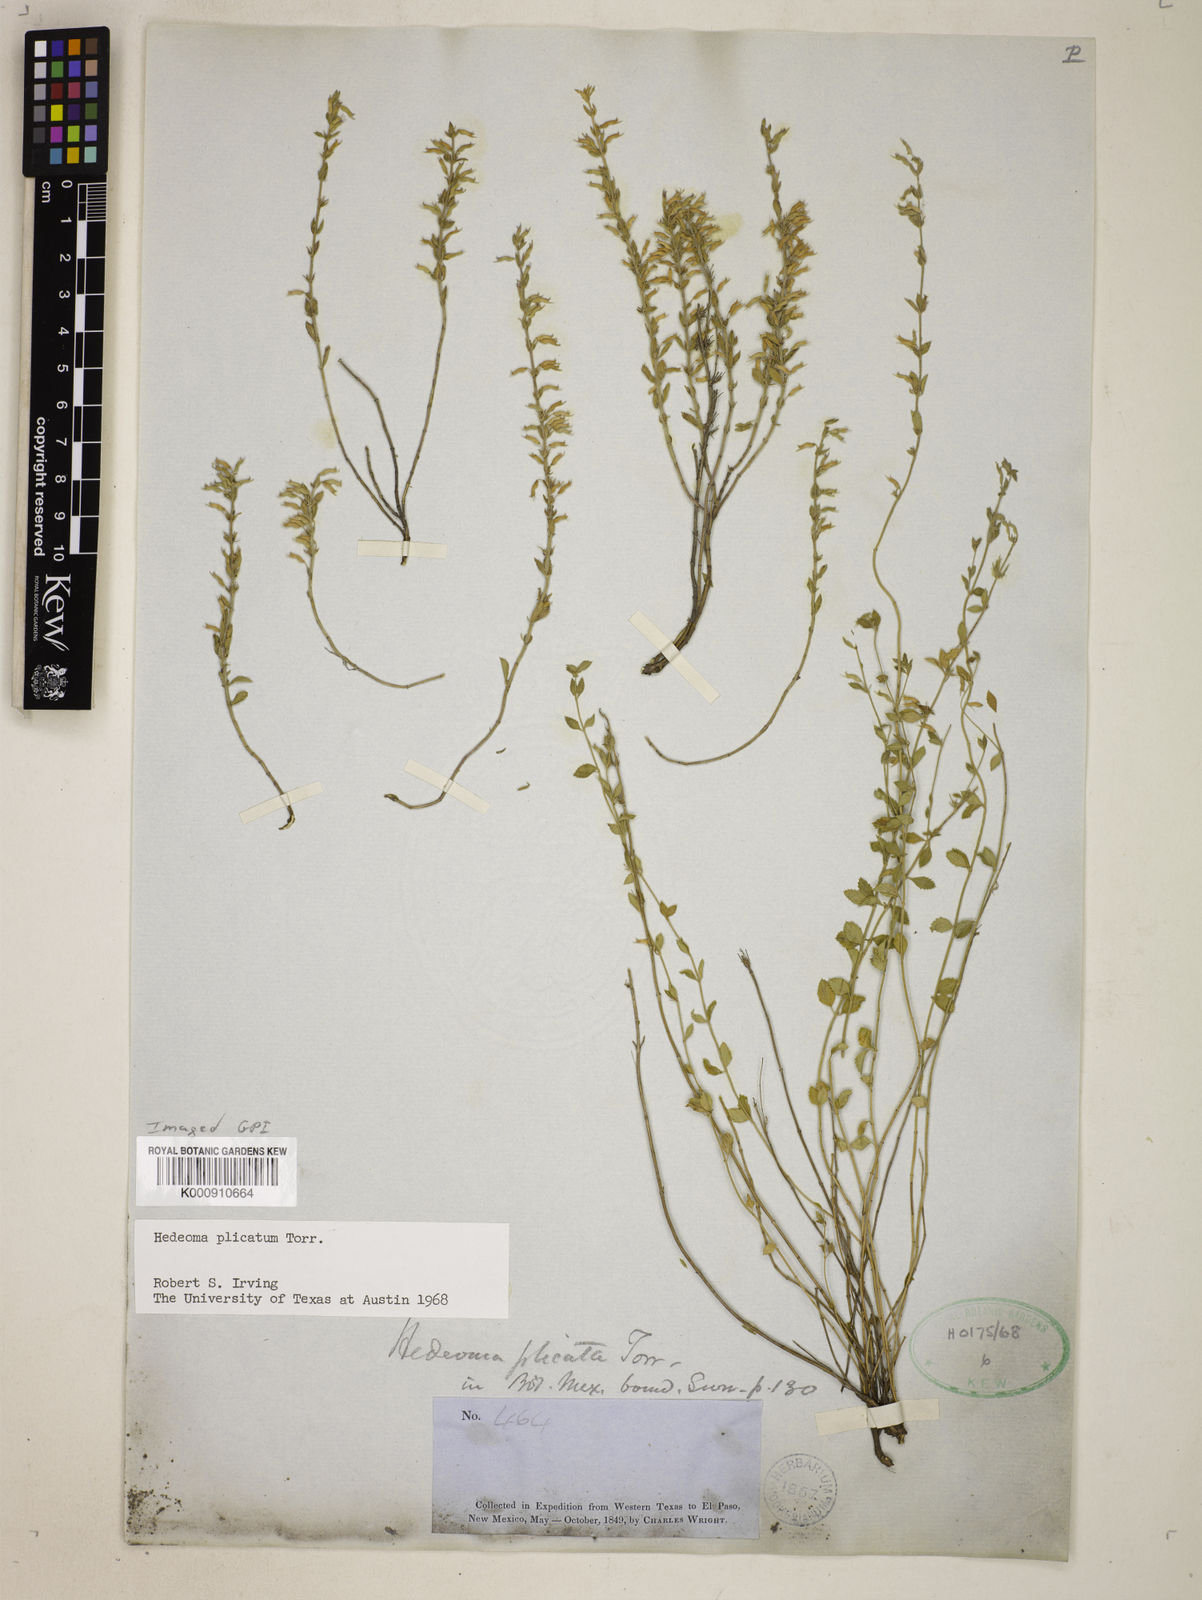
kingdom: Plantae
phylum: Tracheophyta
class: Magnoliopsida
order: Lamiales
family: Lamiaceae
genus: Hedeoma
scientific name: Hedeoma plicata
